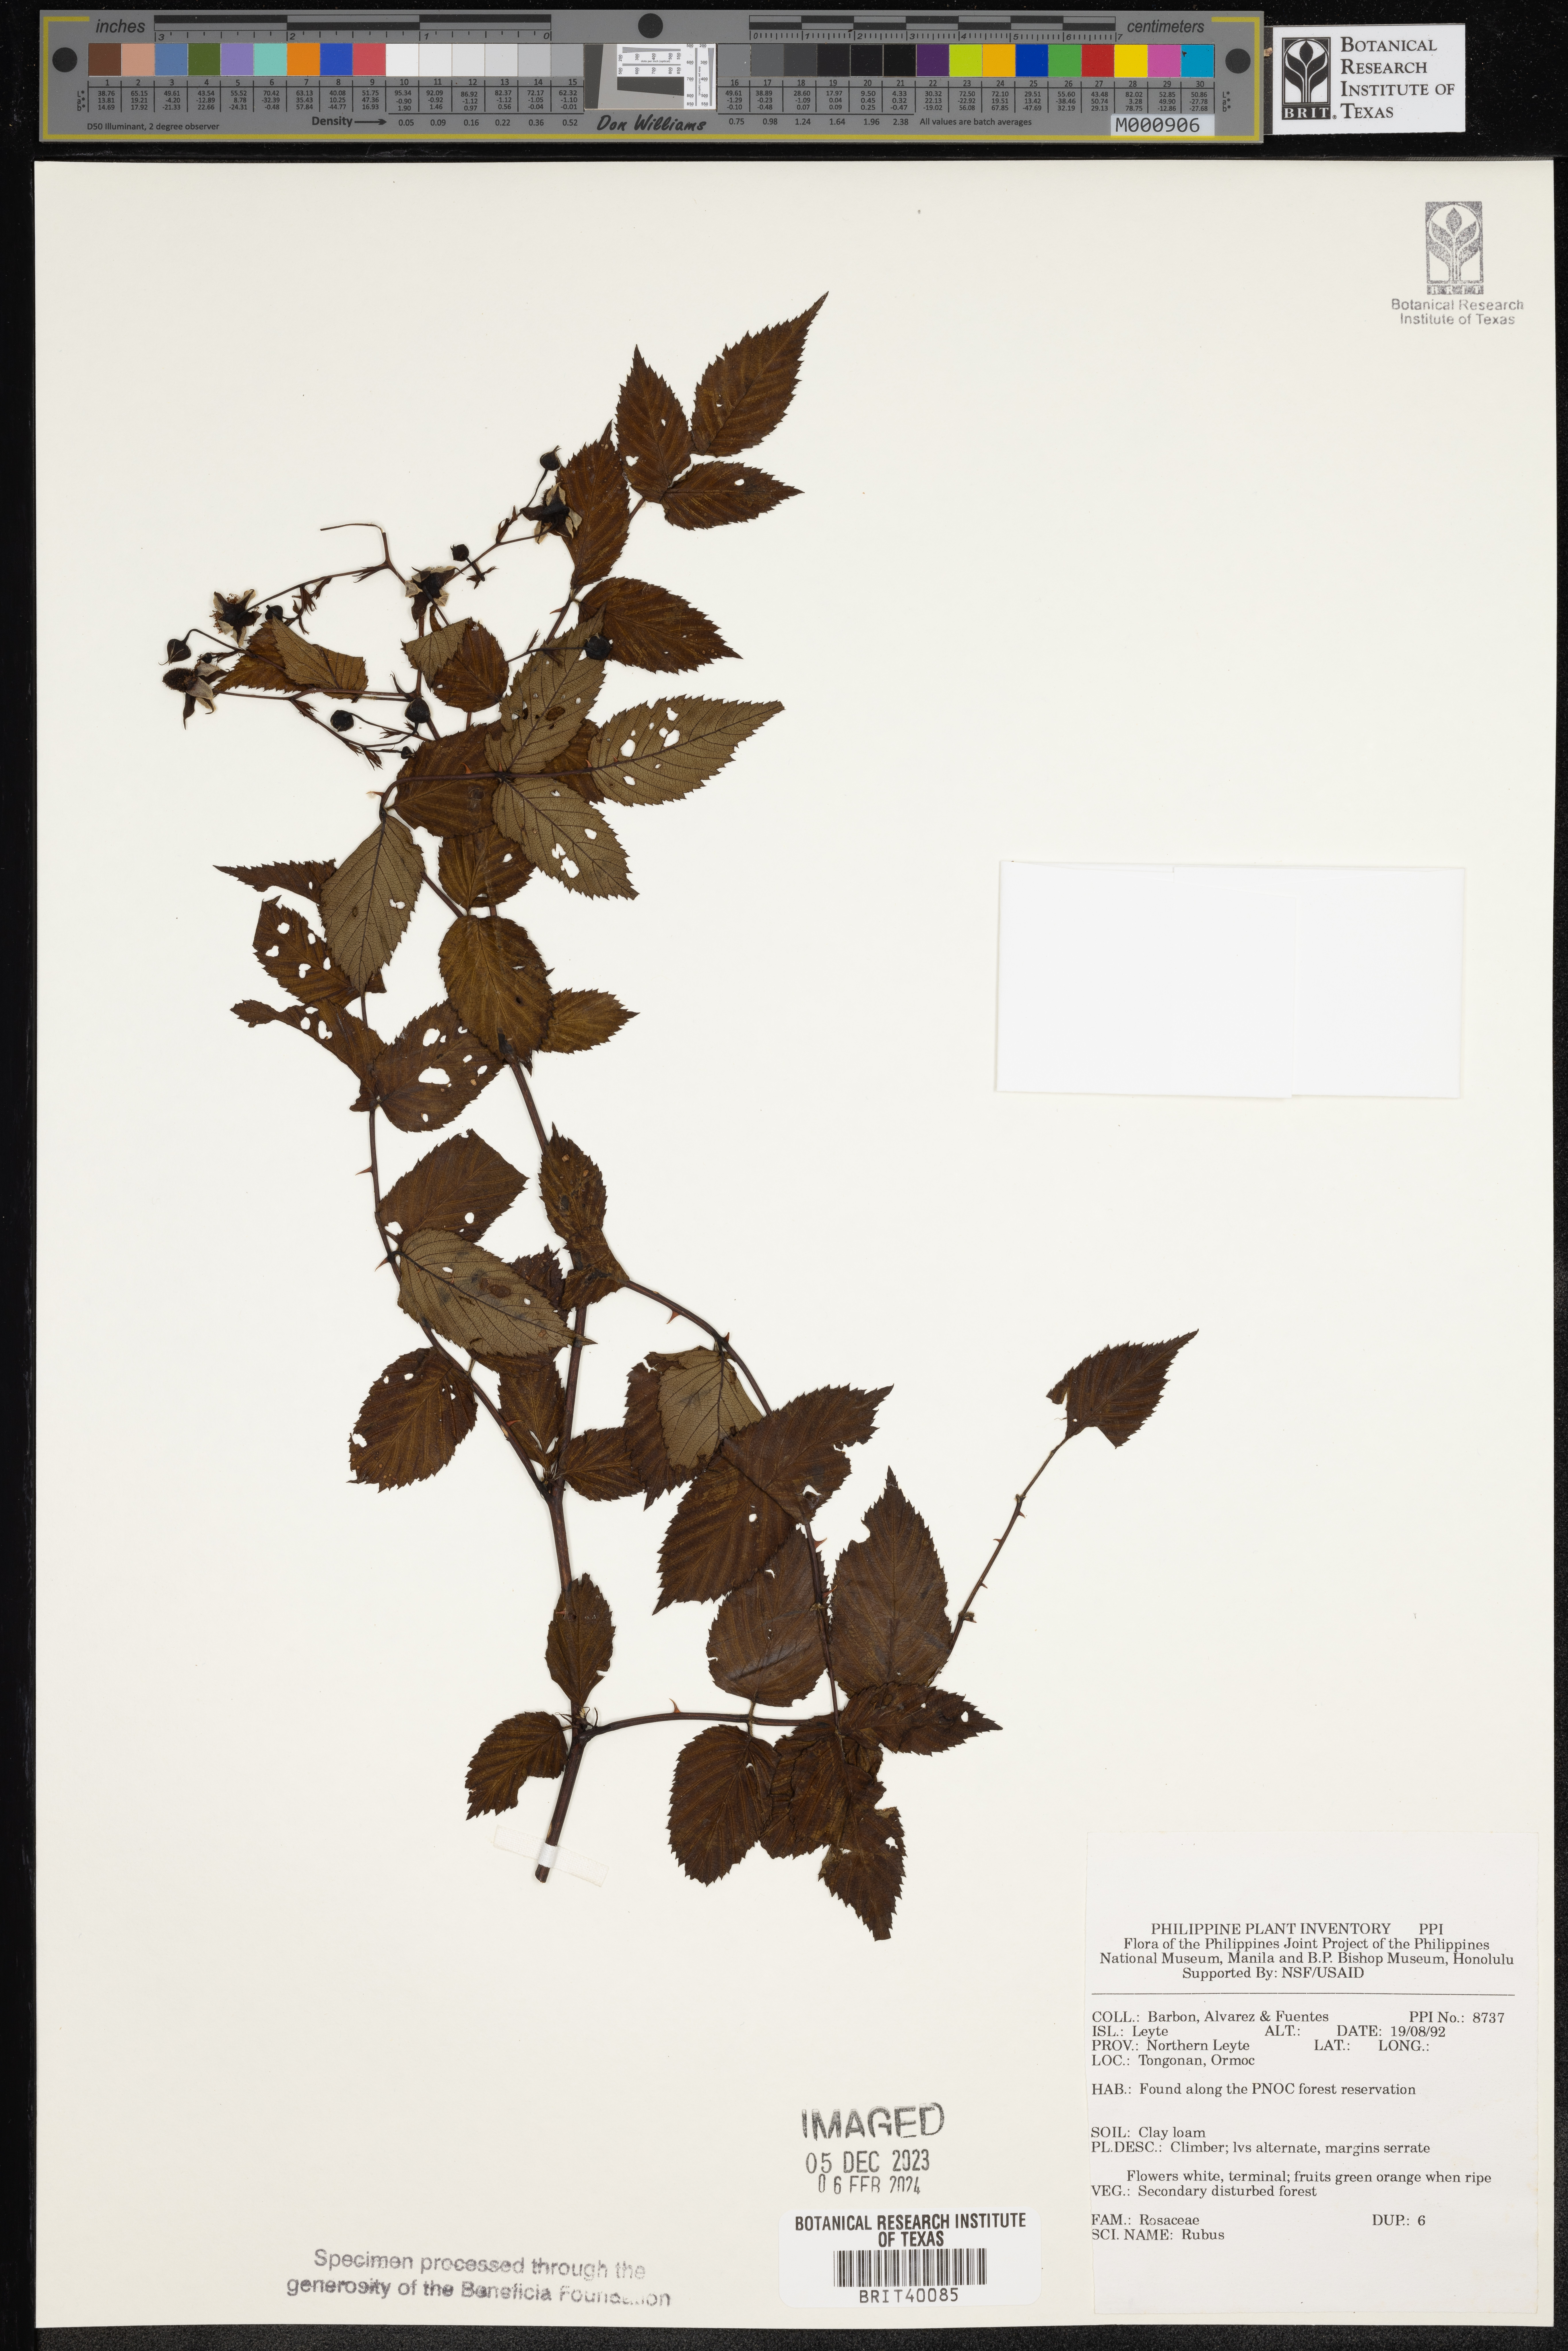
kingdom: Plantae
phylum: Tracheophyta
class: Magnoliopsida
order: Rosales
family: Rosaceae
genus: Rubus
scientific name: Rubus
